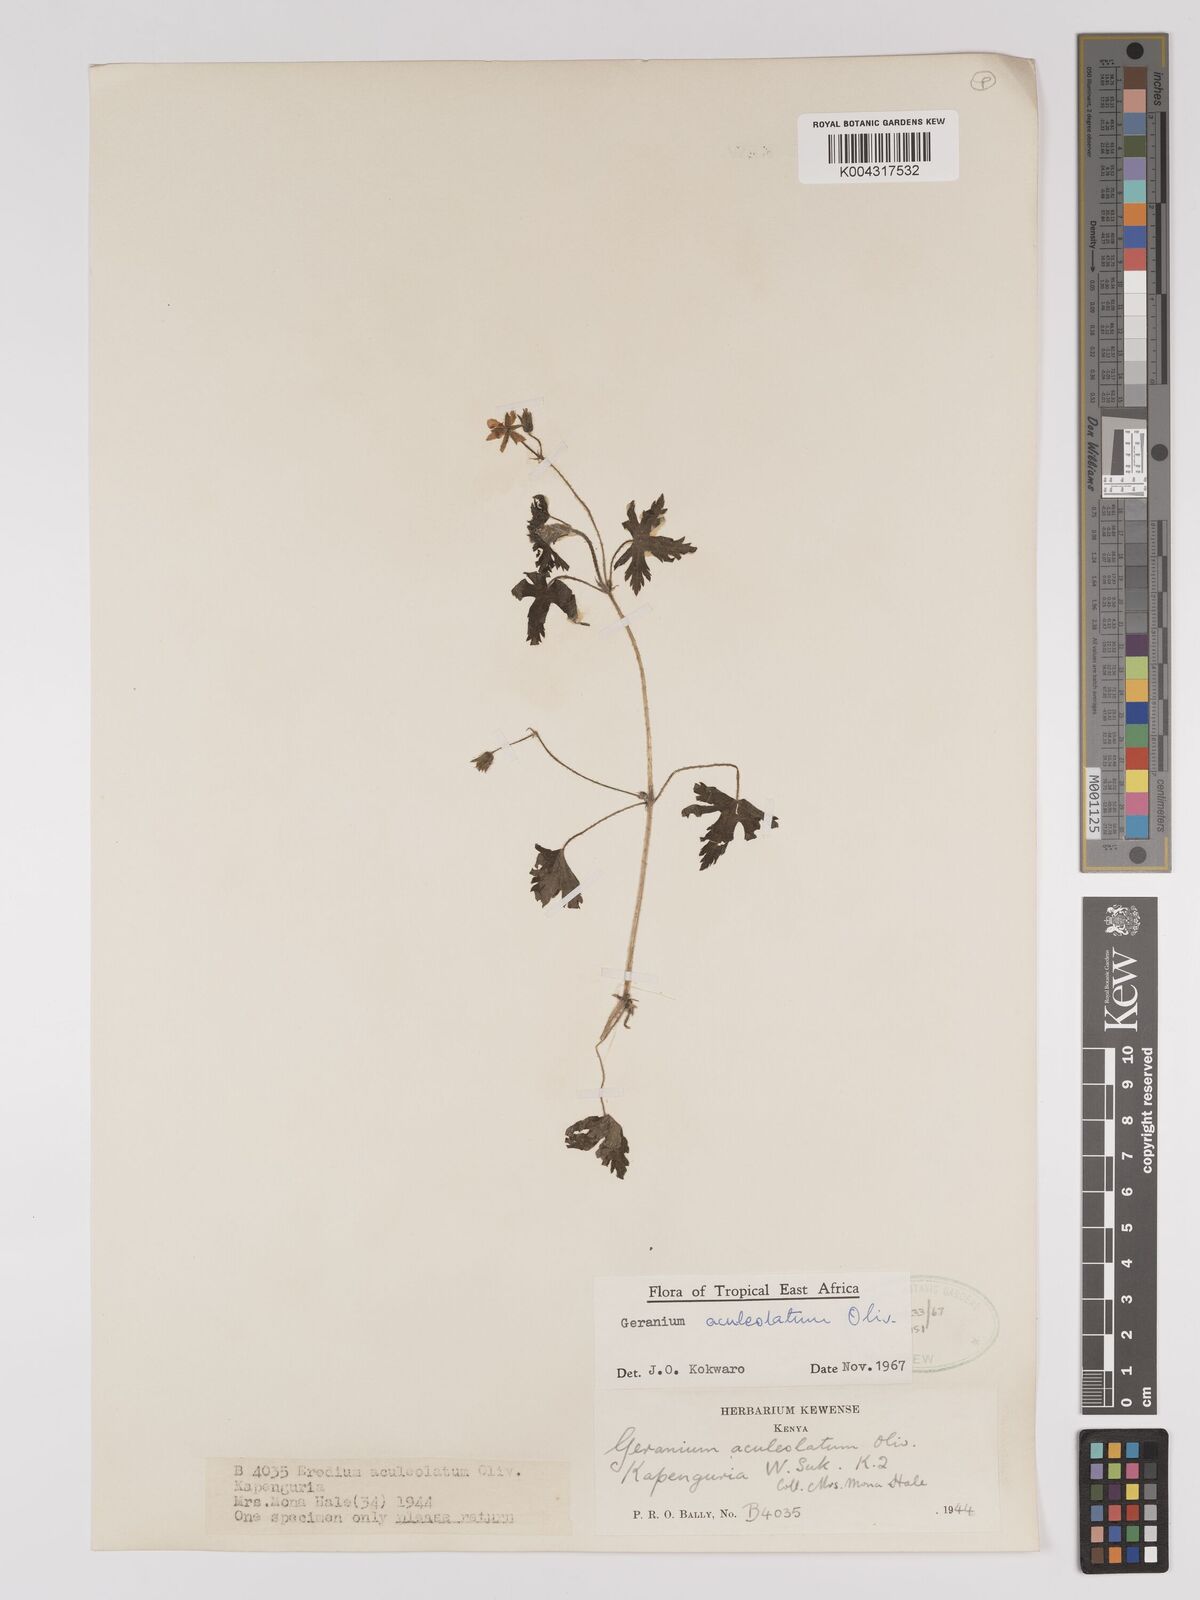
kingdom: Plantae
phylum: Tracheophyta
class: Magnoliopsida
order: Geraniales
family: Geraniaceae
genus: Geranium
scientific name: Geranium aculeolatum
